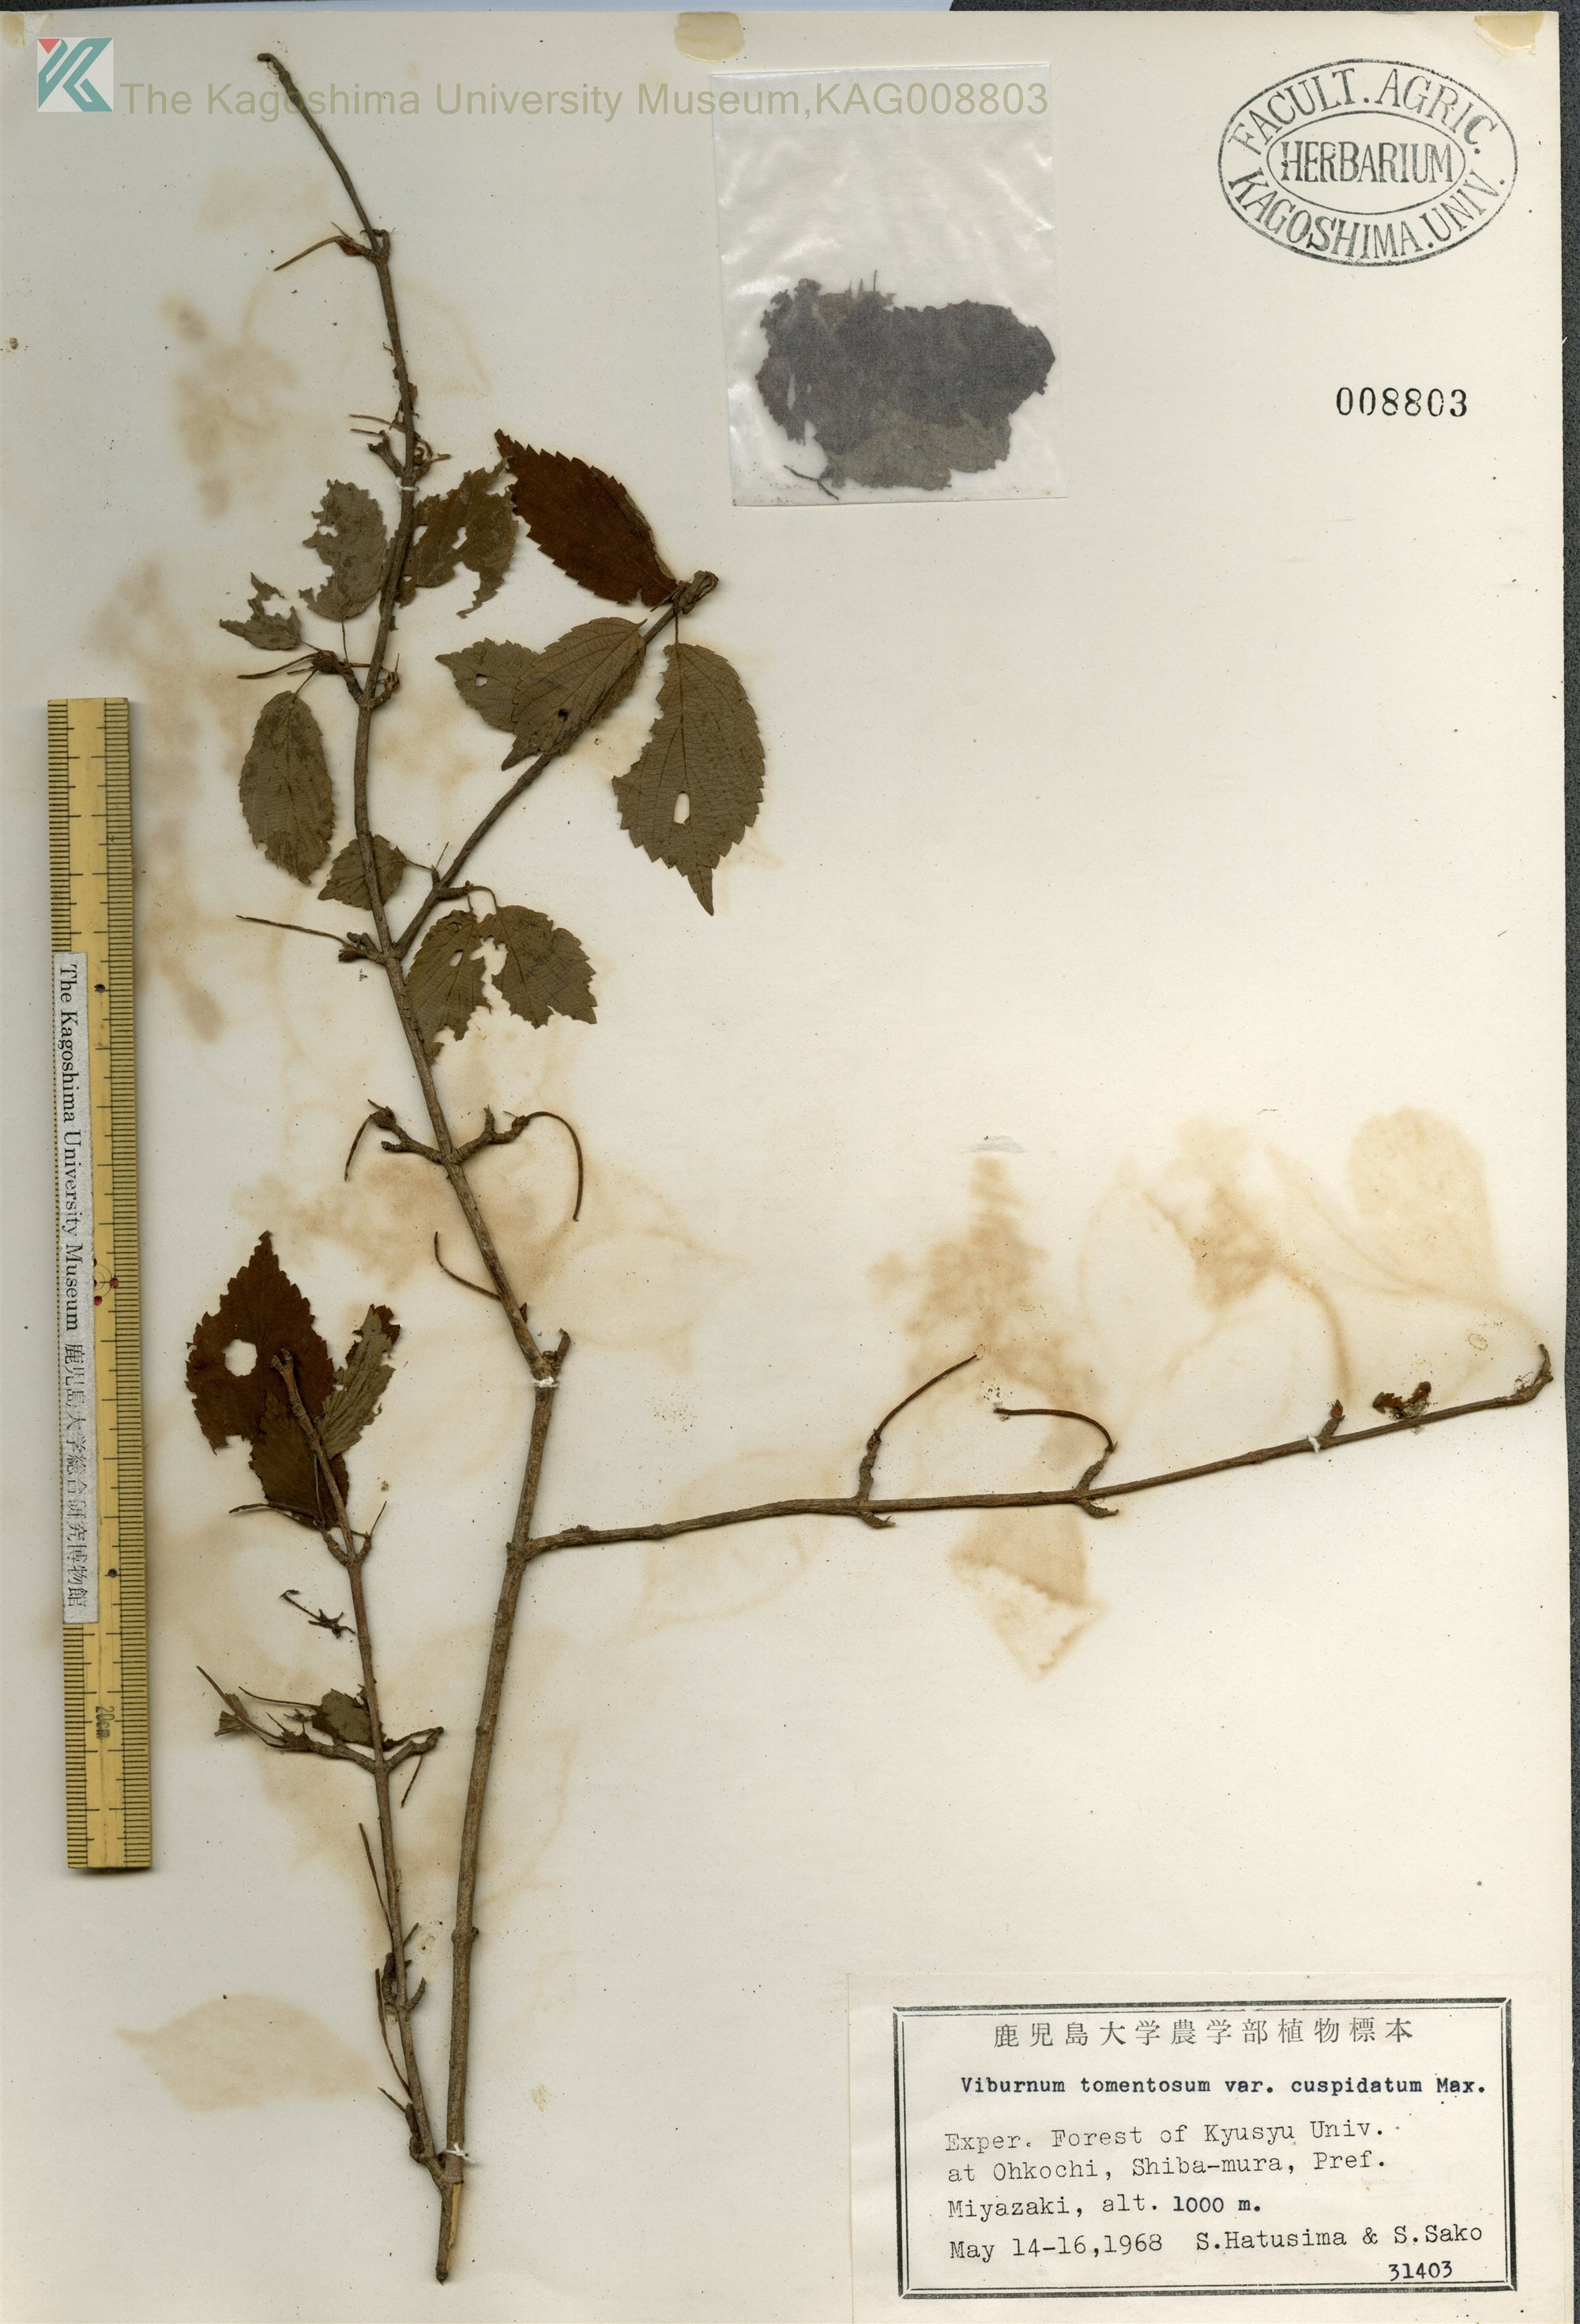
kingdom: Plantae
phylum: Tracheophyta
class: Magnoliopsida
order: Dipsacales
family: Viburnaceae
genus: Viburnum
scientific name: Viburnum plicatum
